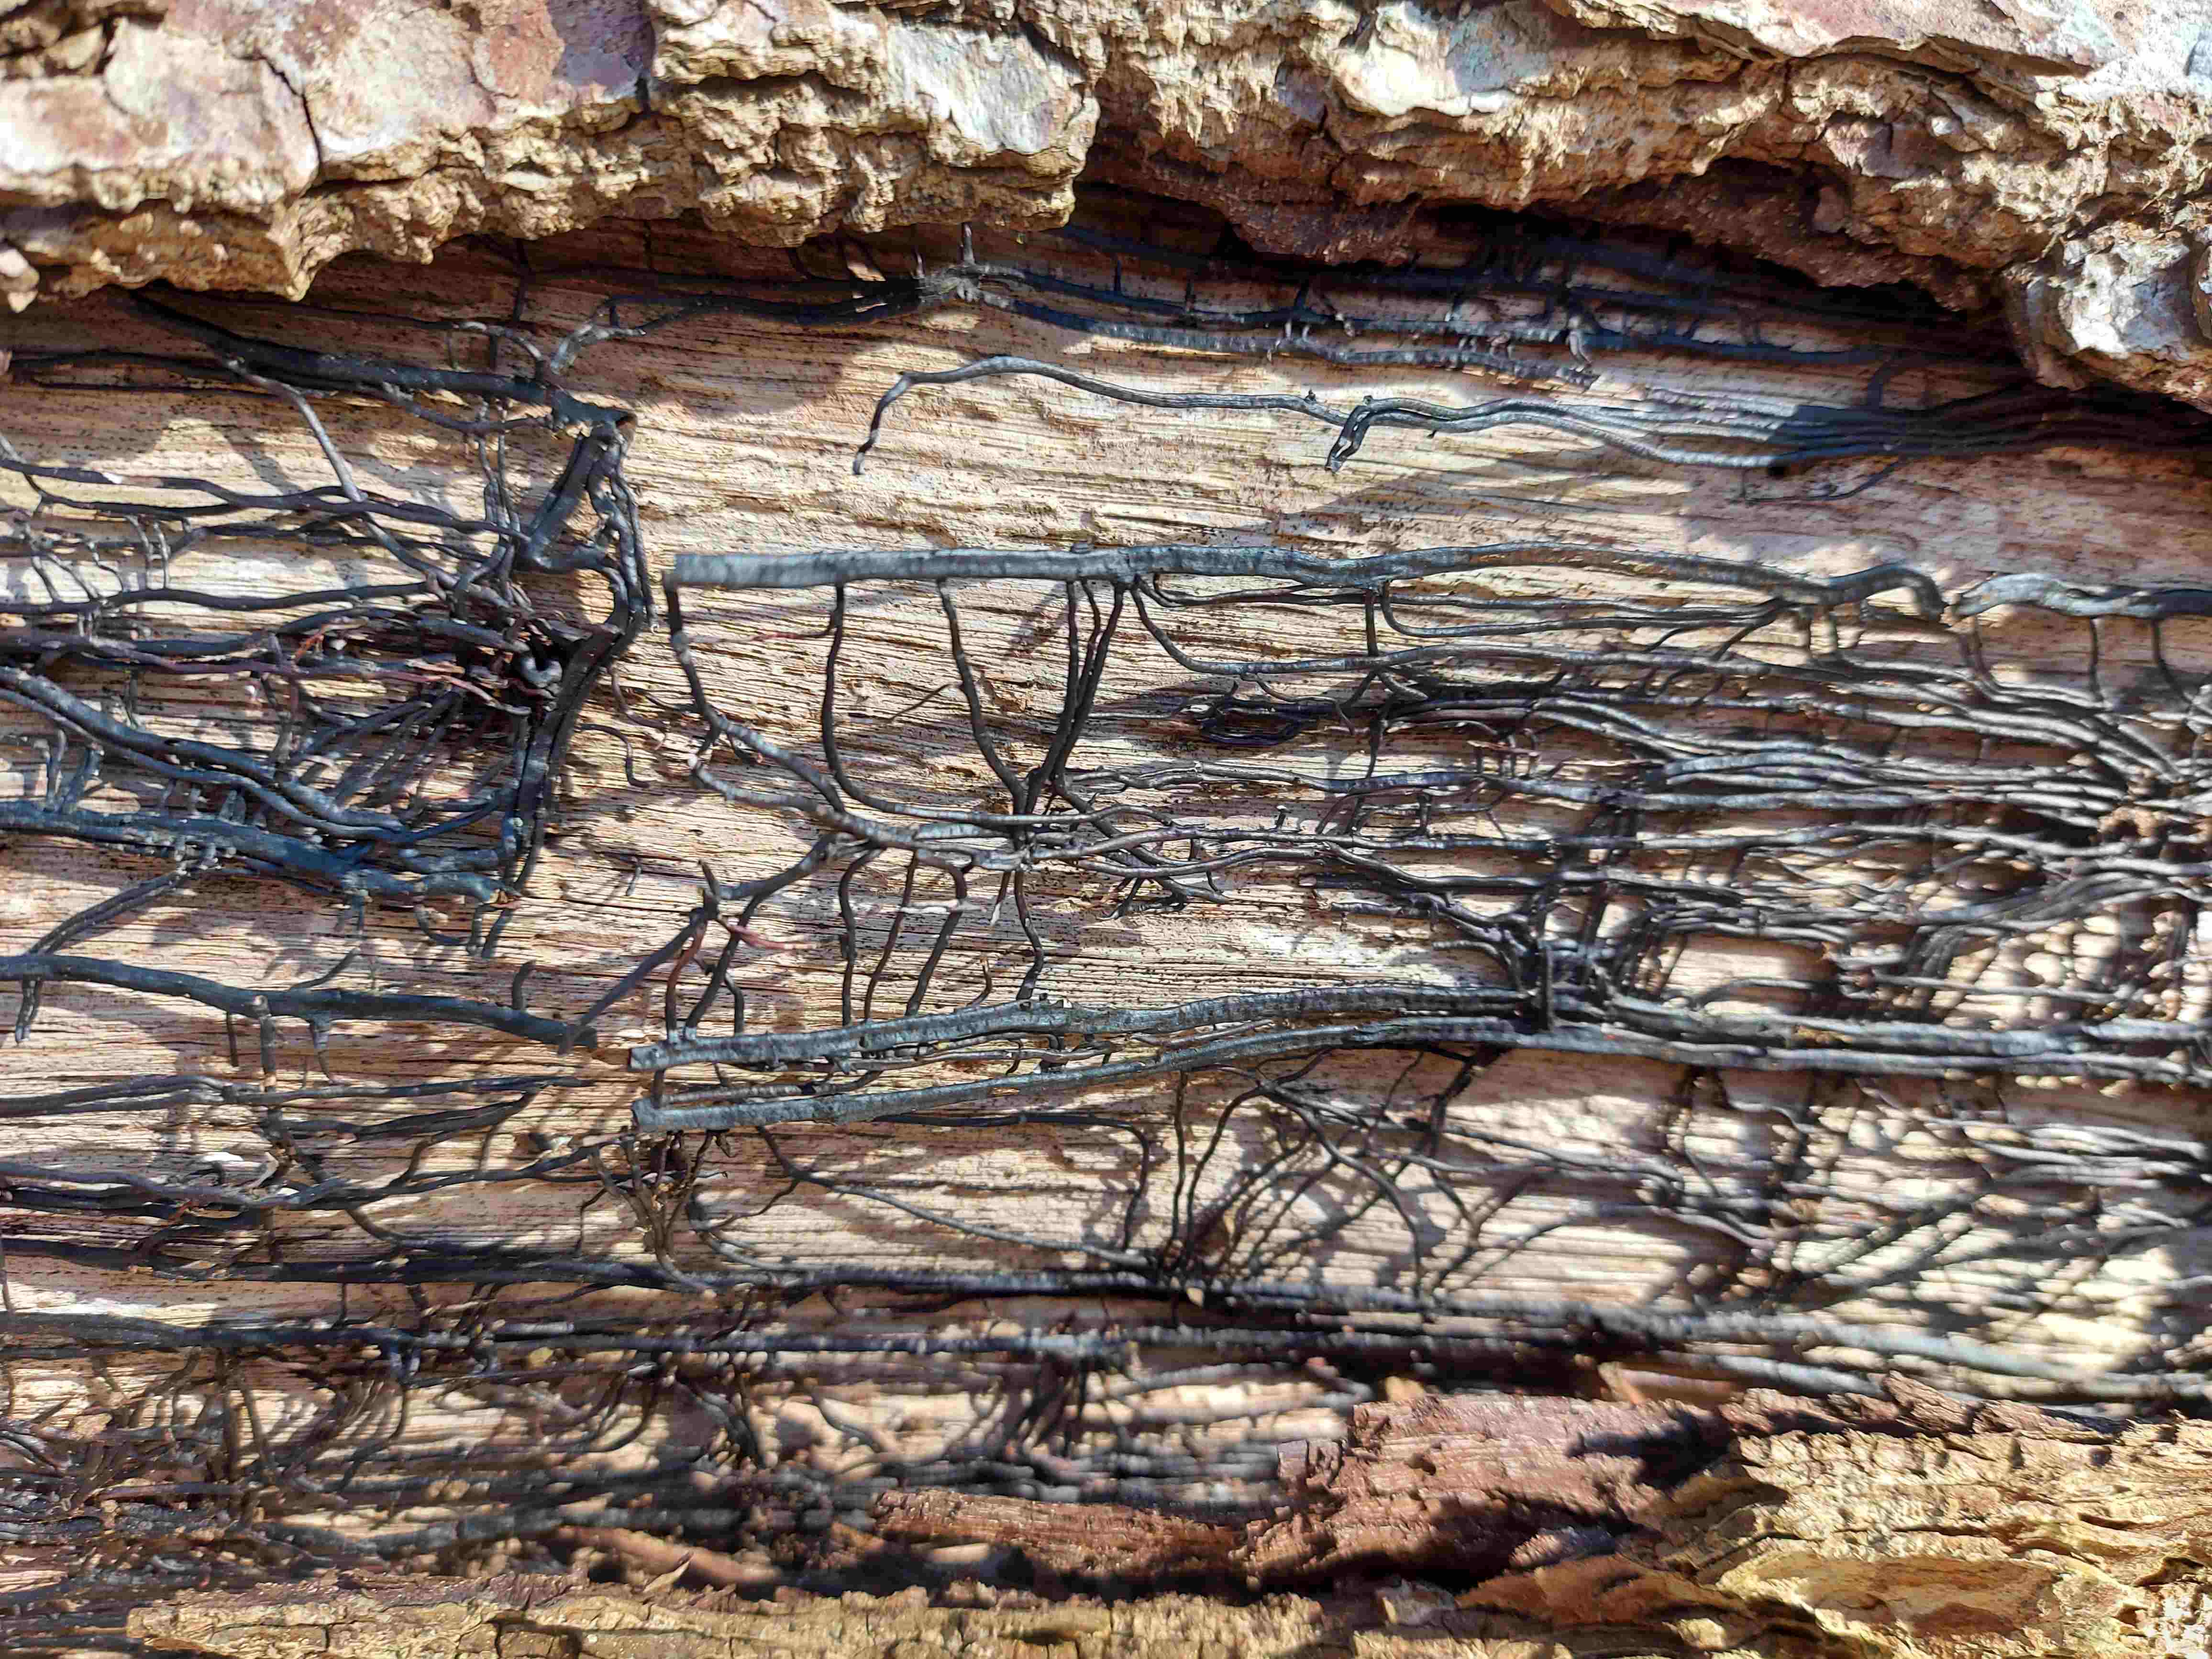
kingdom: Fungi
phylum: Basidiomycota
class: Agaricomycetes
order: Agaricales
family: Physalacriaceae
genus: Armillaria
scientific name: Armillaria
